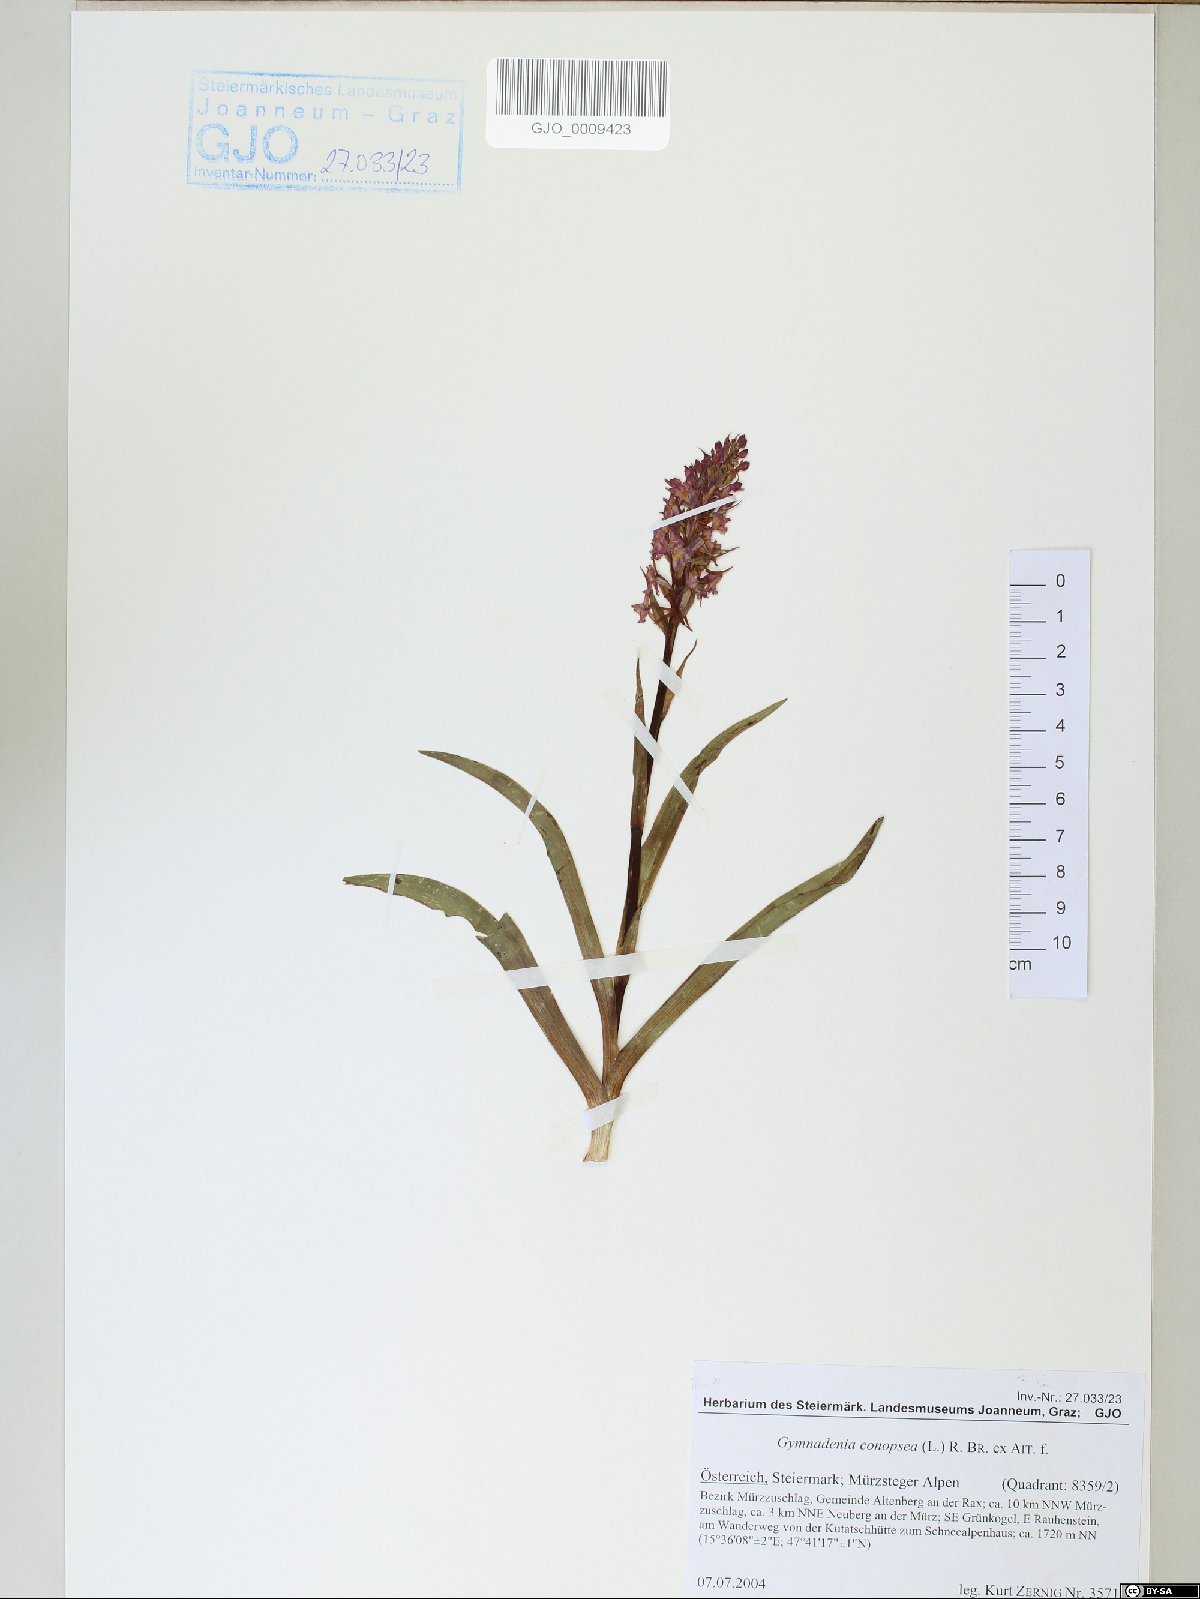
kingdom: Plantae
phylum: Tracheophyta
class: Liliopsida
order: Asparagales
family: Orchidaceae
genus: Gymnadenia
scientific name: Gymnadenia conopsea
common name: Fragrant orchid
